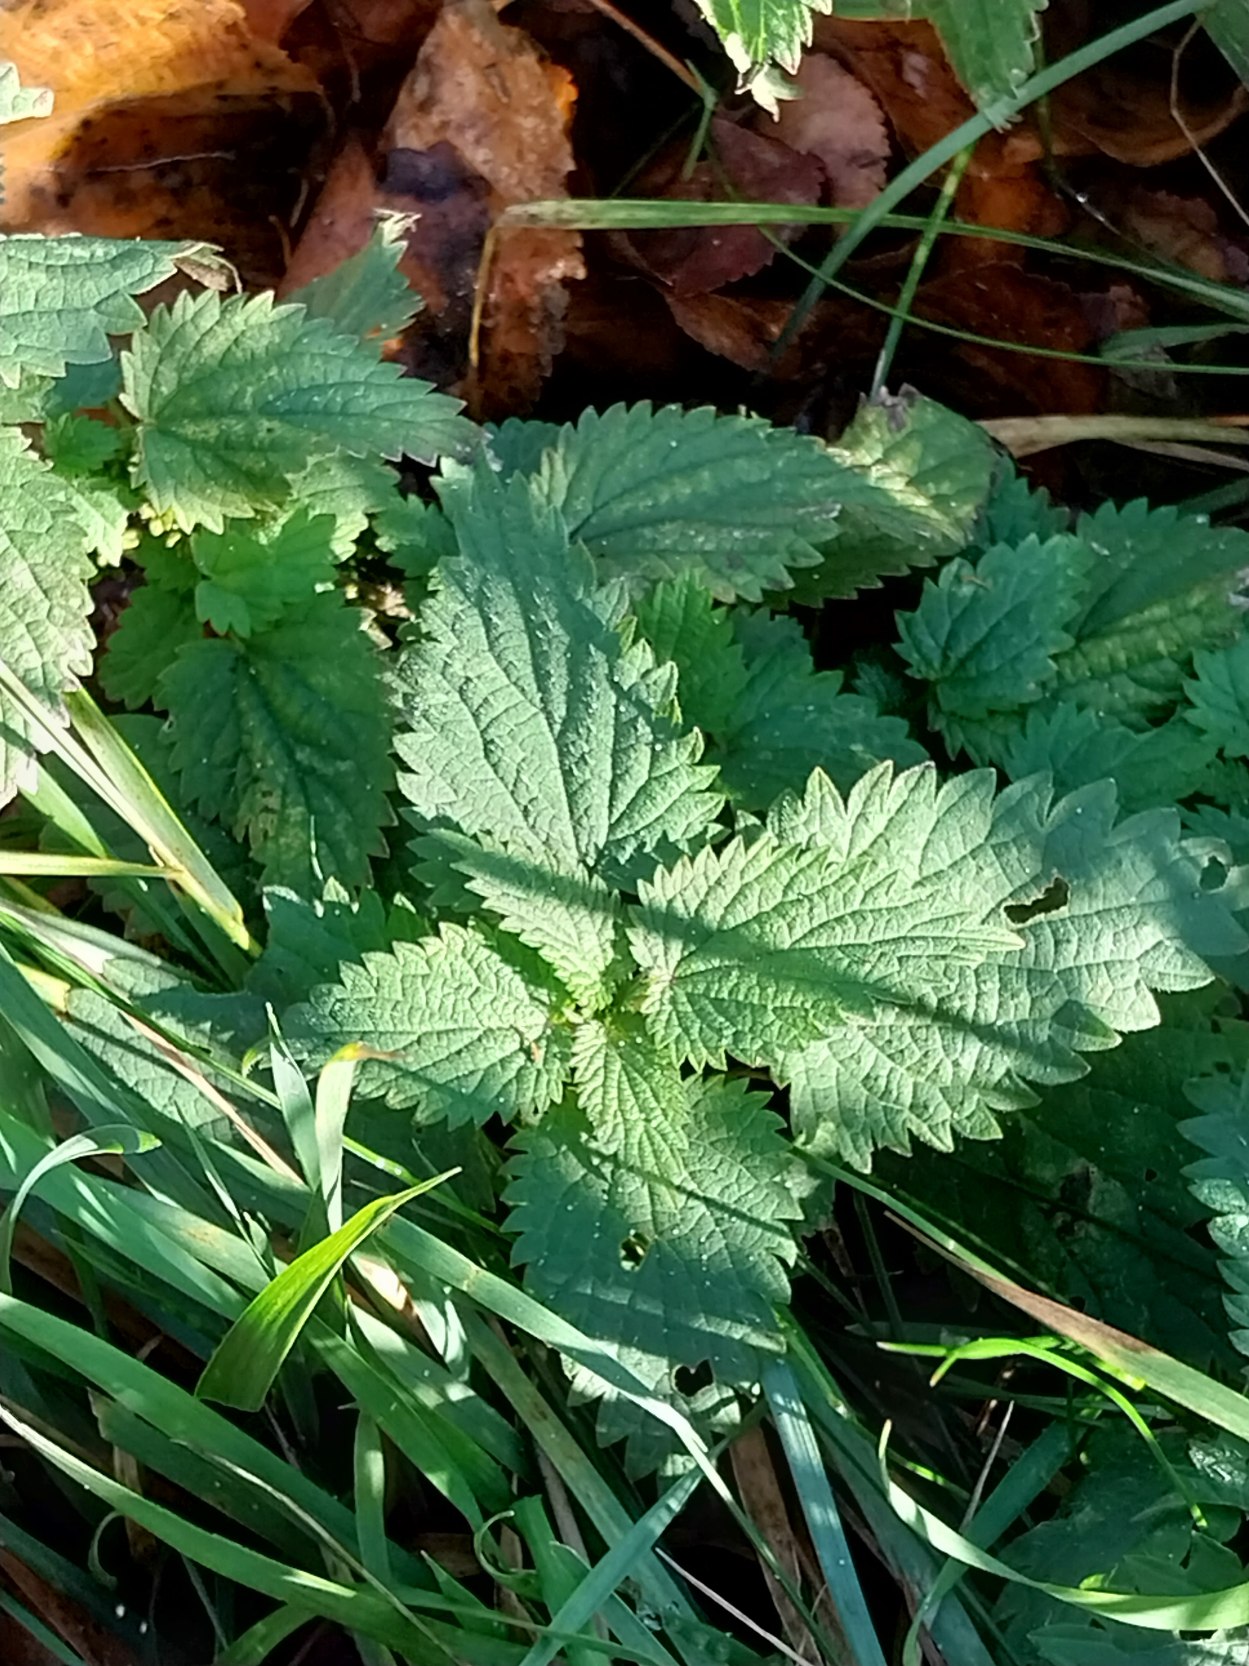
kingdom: Plantae
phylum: Tracheophyta
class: Magnoliopsida
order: Rosales
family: Urticaceae
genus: Urtica
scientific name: Urtica dioica
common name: Stor nælde
